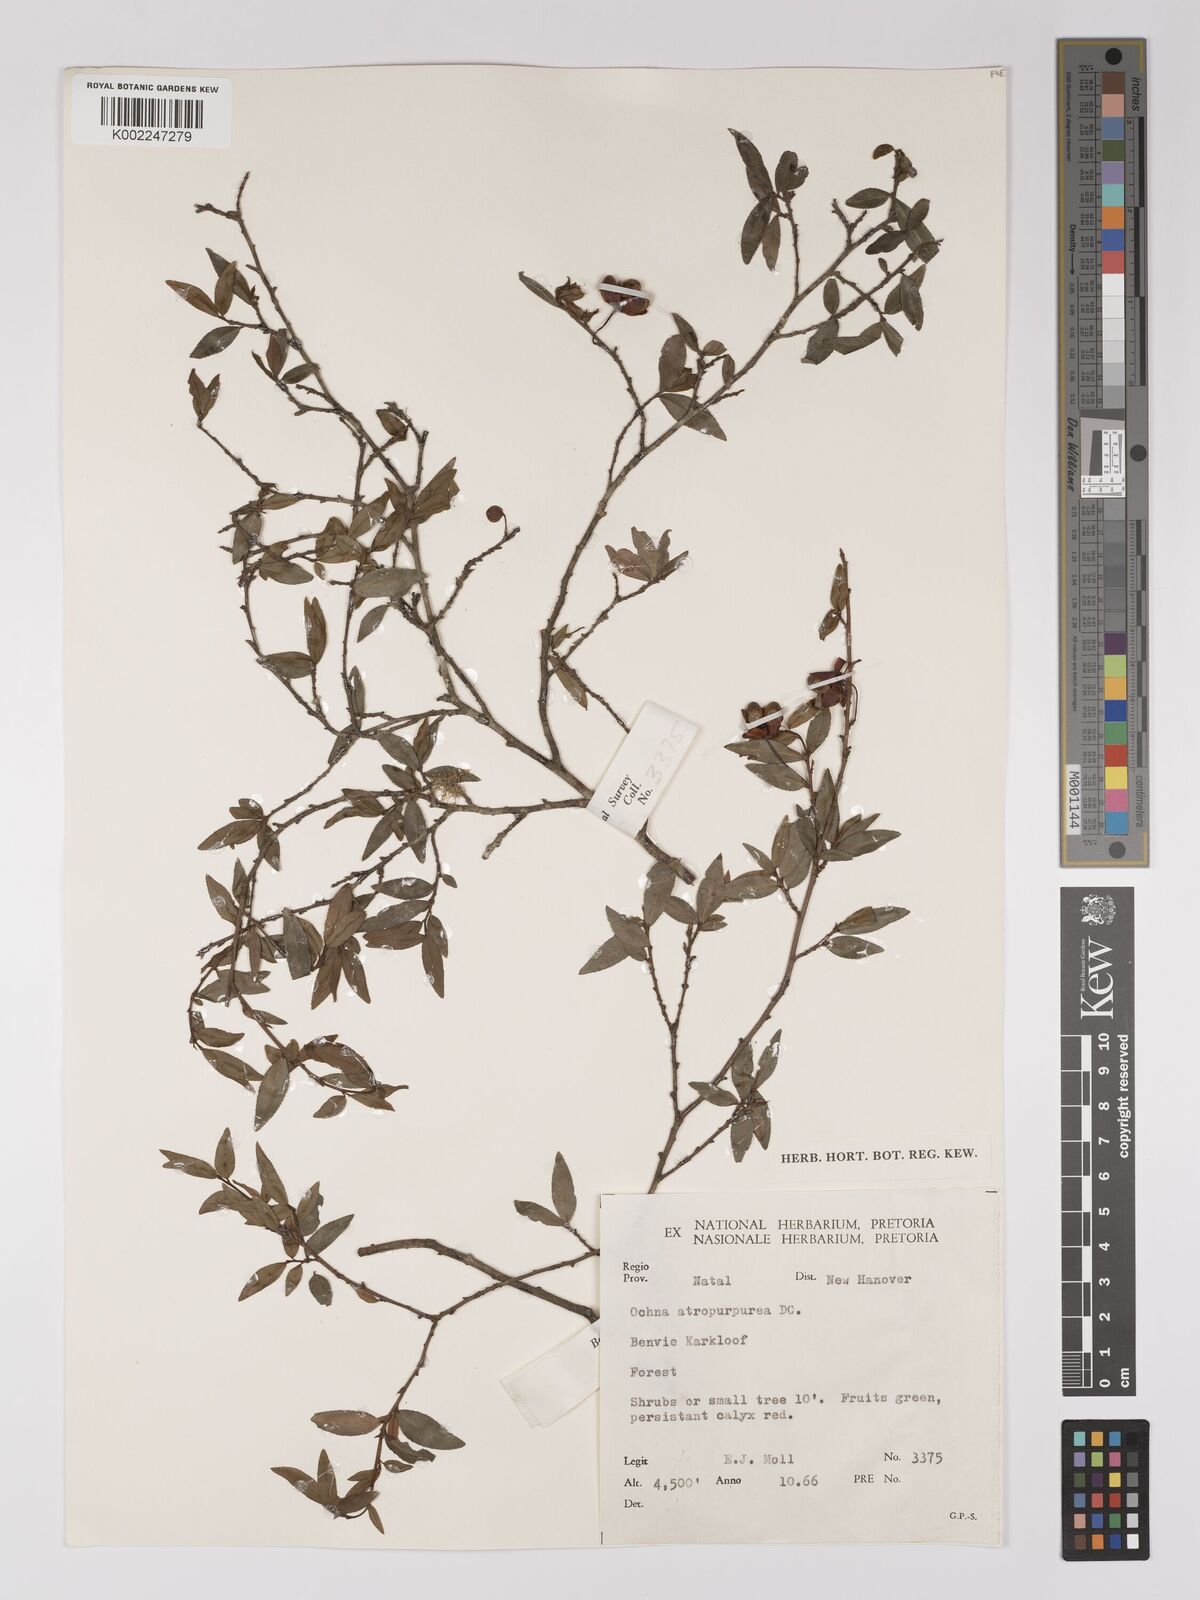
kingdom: Plantae
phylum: Tracheophyta
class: Magnoliopsida
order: Malpighiales
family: Ochnaceae
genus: Ochna
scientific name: Ochna gamostigmata
